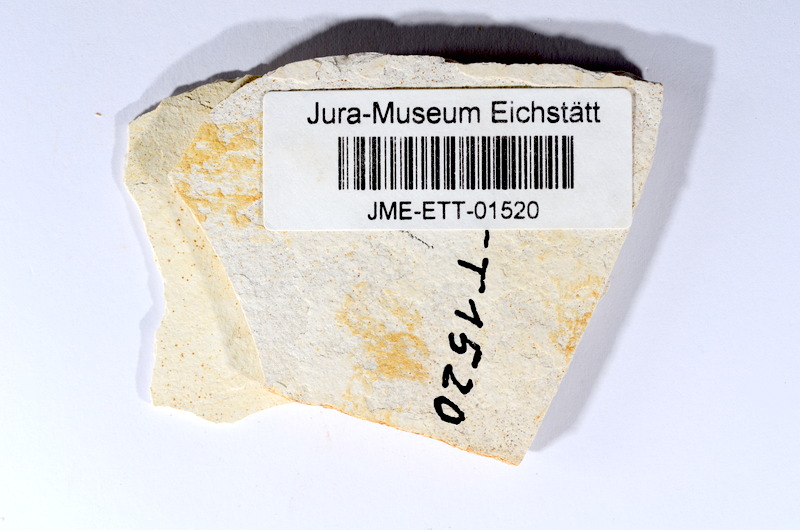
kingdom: Animalia
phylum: Chordata
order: Salmoniformes
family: Orthogonikleithridae
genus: Orthogonikleithrus
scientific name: Orthogonikleithrus hoelli
